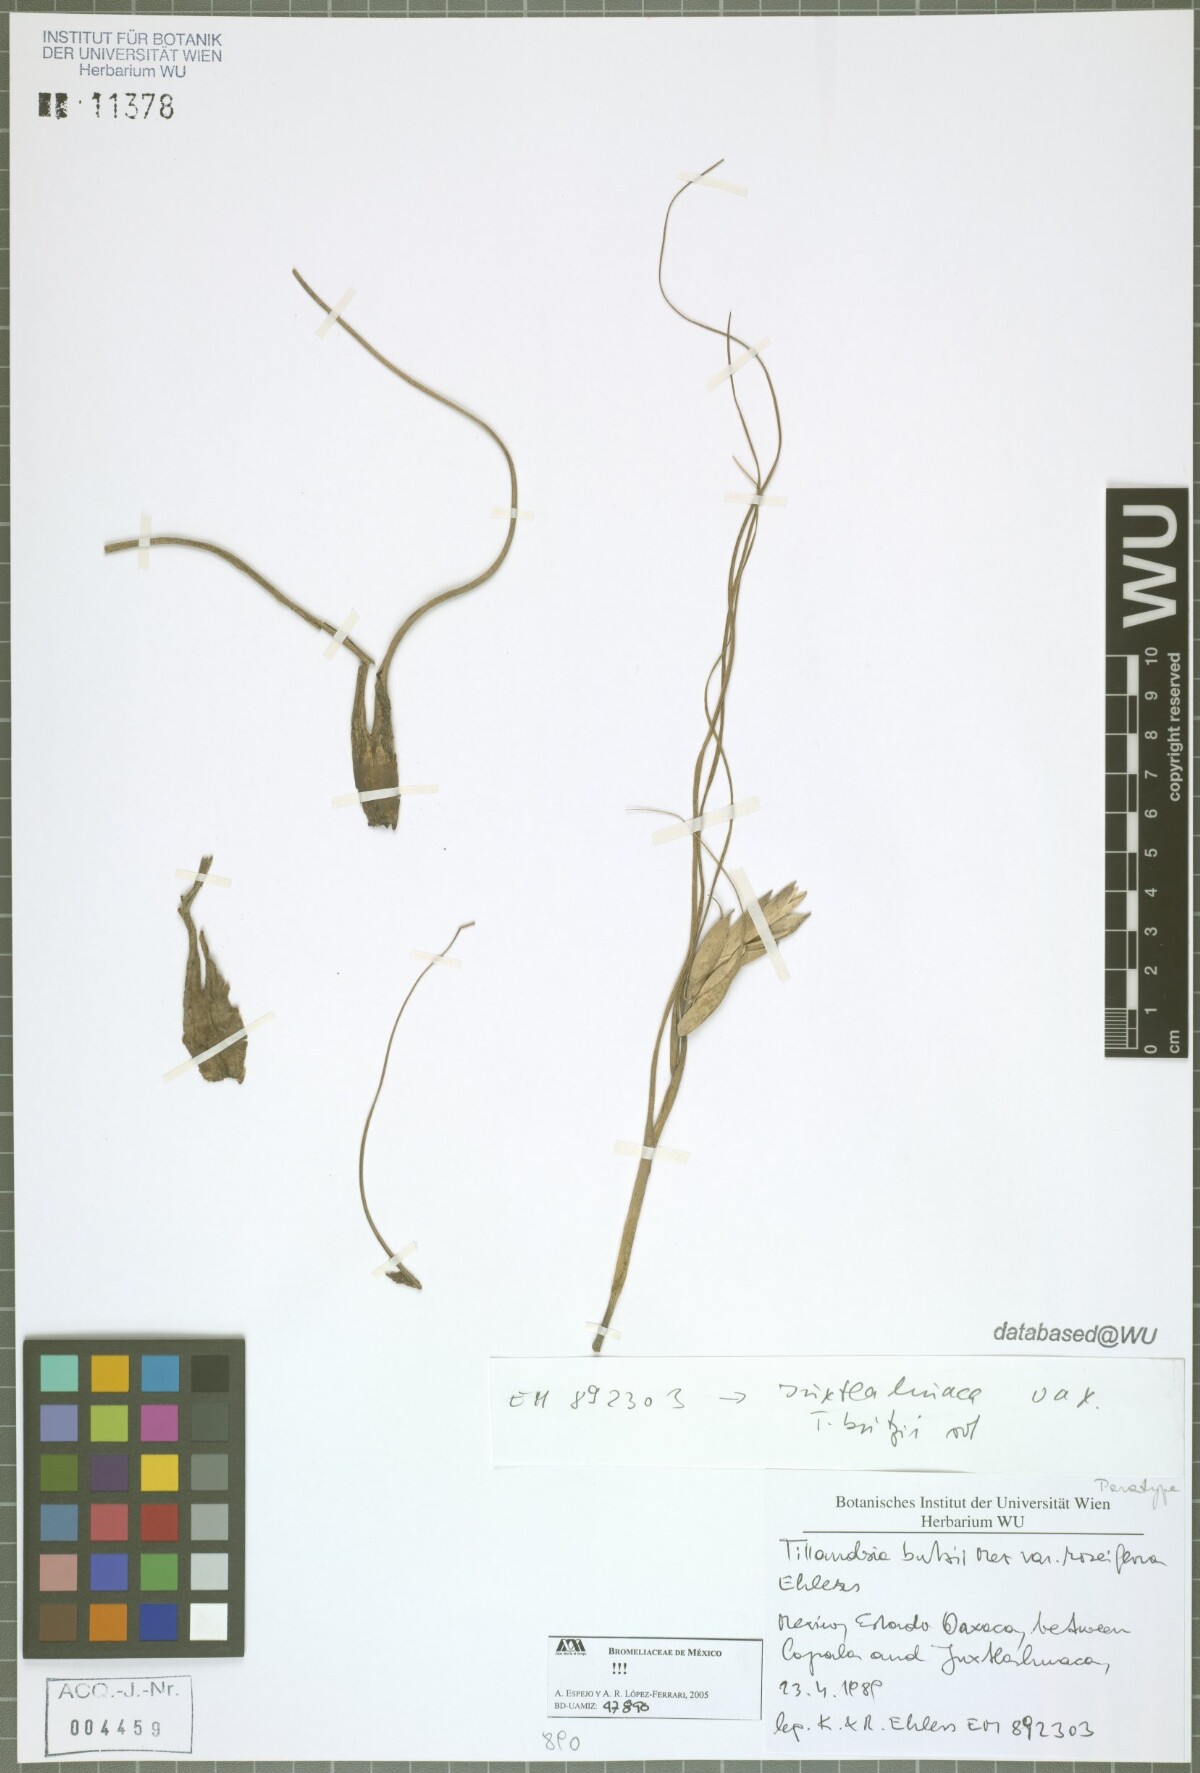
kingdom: Plantae
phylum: Tracheophyta
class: Liliopsida
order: Poales
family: Bromeliaceae
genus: Tillandsia
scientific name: Tillandsia butzii
